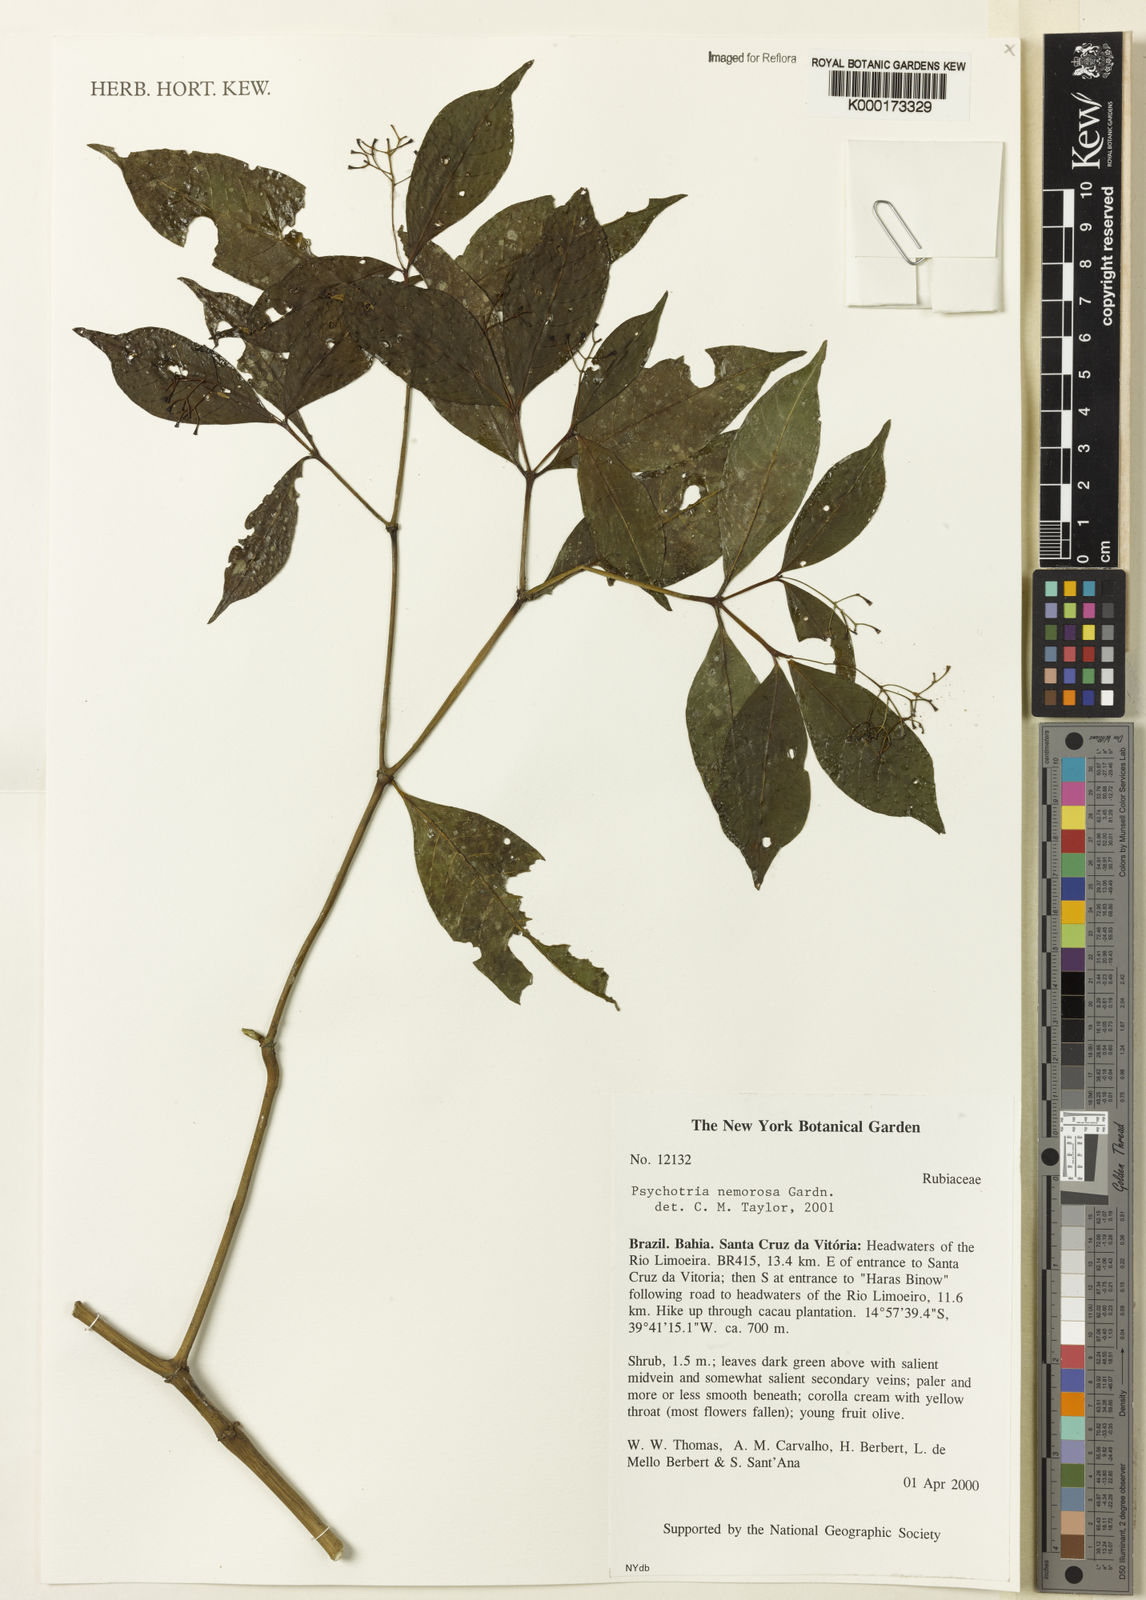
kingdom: Plantae
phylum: Tracheophyta
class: Magnoliopsida
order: Gentianales
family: Rubiaceae
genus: Psychotria
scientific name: Psychotria nemorosa
